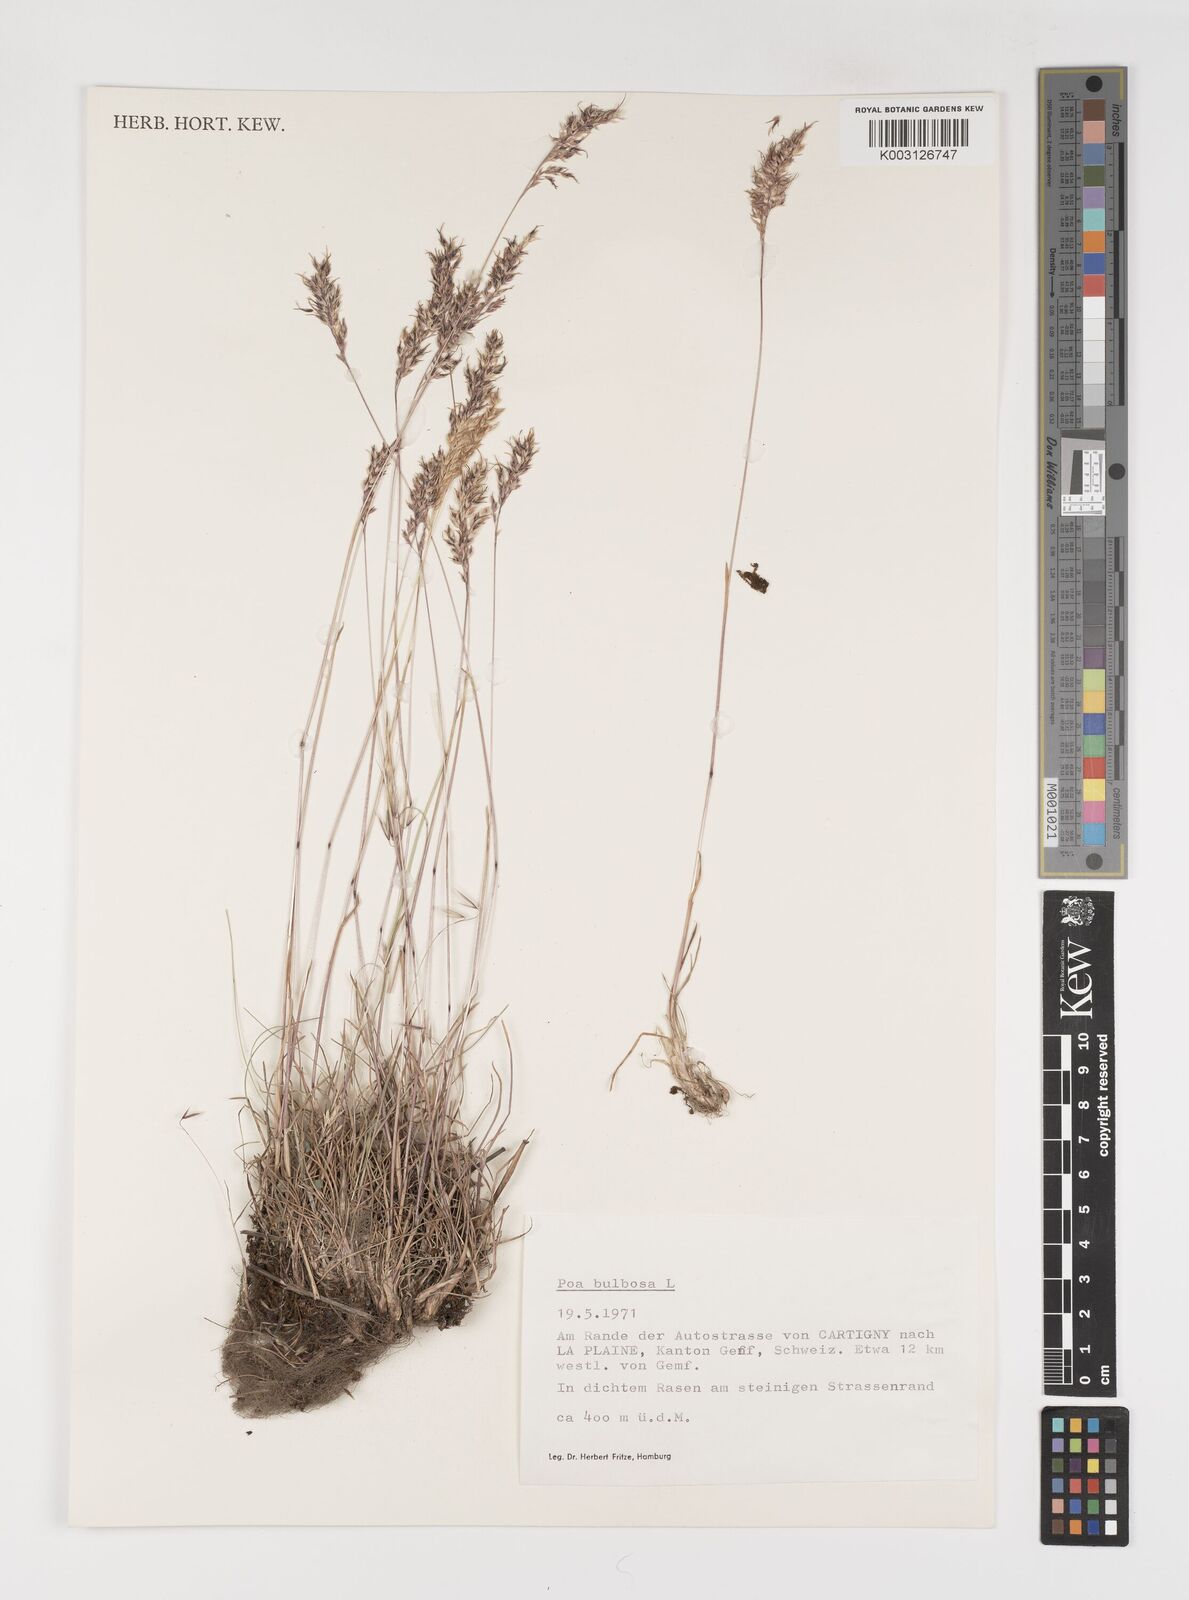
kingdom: Plantae
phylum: Tracheophyta
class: Liliopsida
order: Poales
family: Poaceae
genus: Poa
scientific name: Poa bulbosa
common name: Bulbous bluegrass
